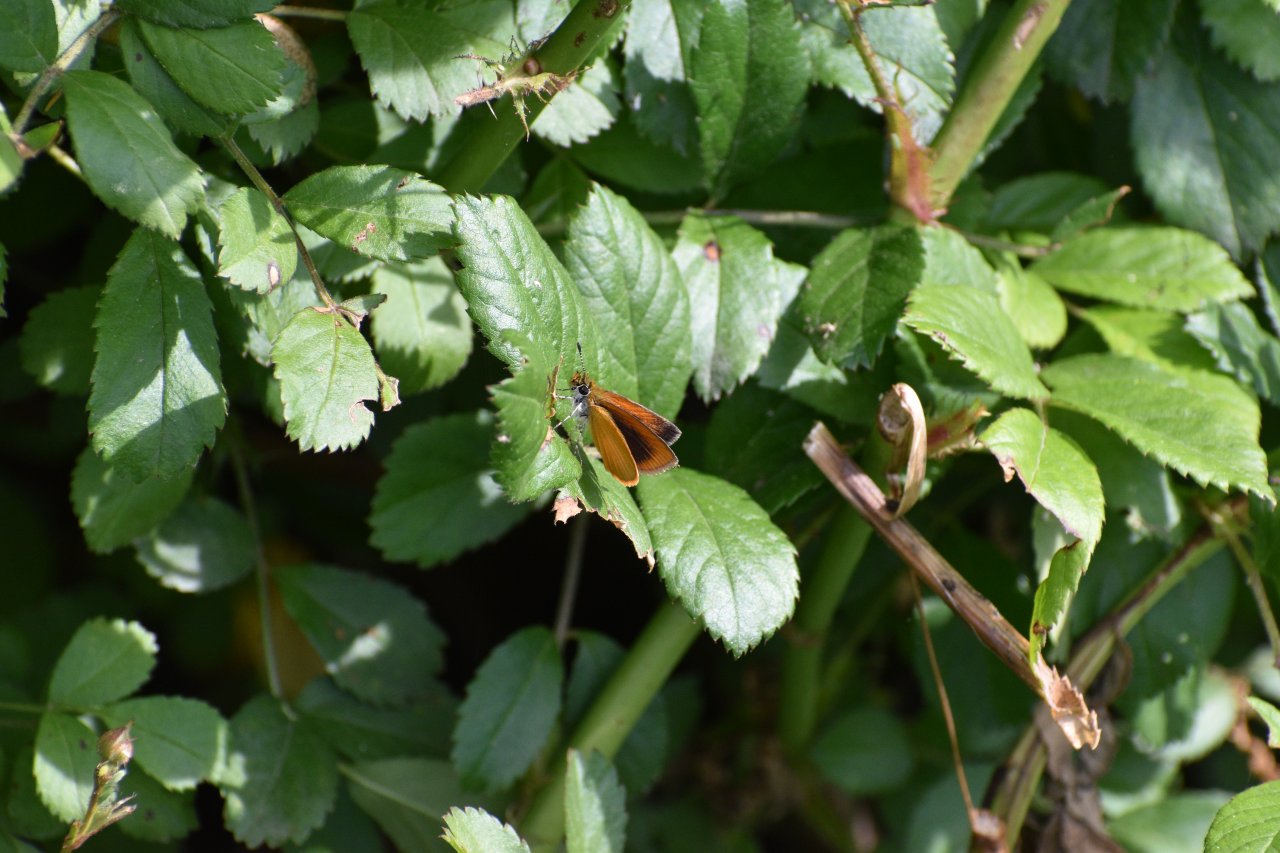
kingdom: Animalia
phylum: Arthropoda
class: Insecta
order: Lepidoptera
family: Hesperiidae
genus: Ancyloxypha
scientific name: Ancyloxypha numitor
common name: Least Skipper
